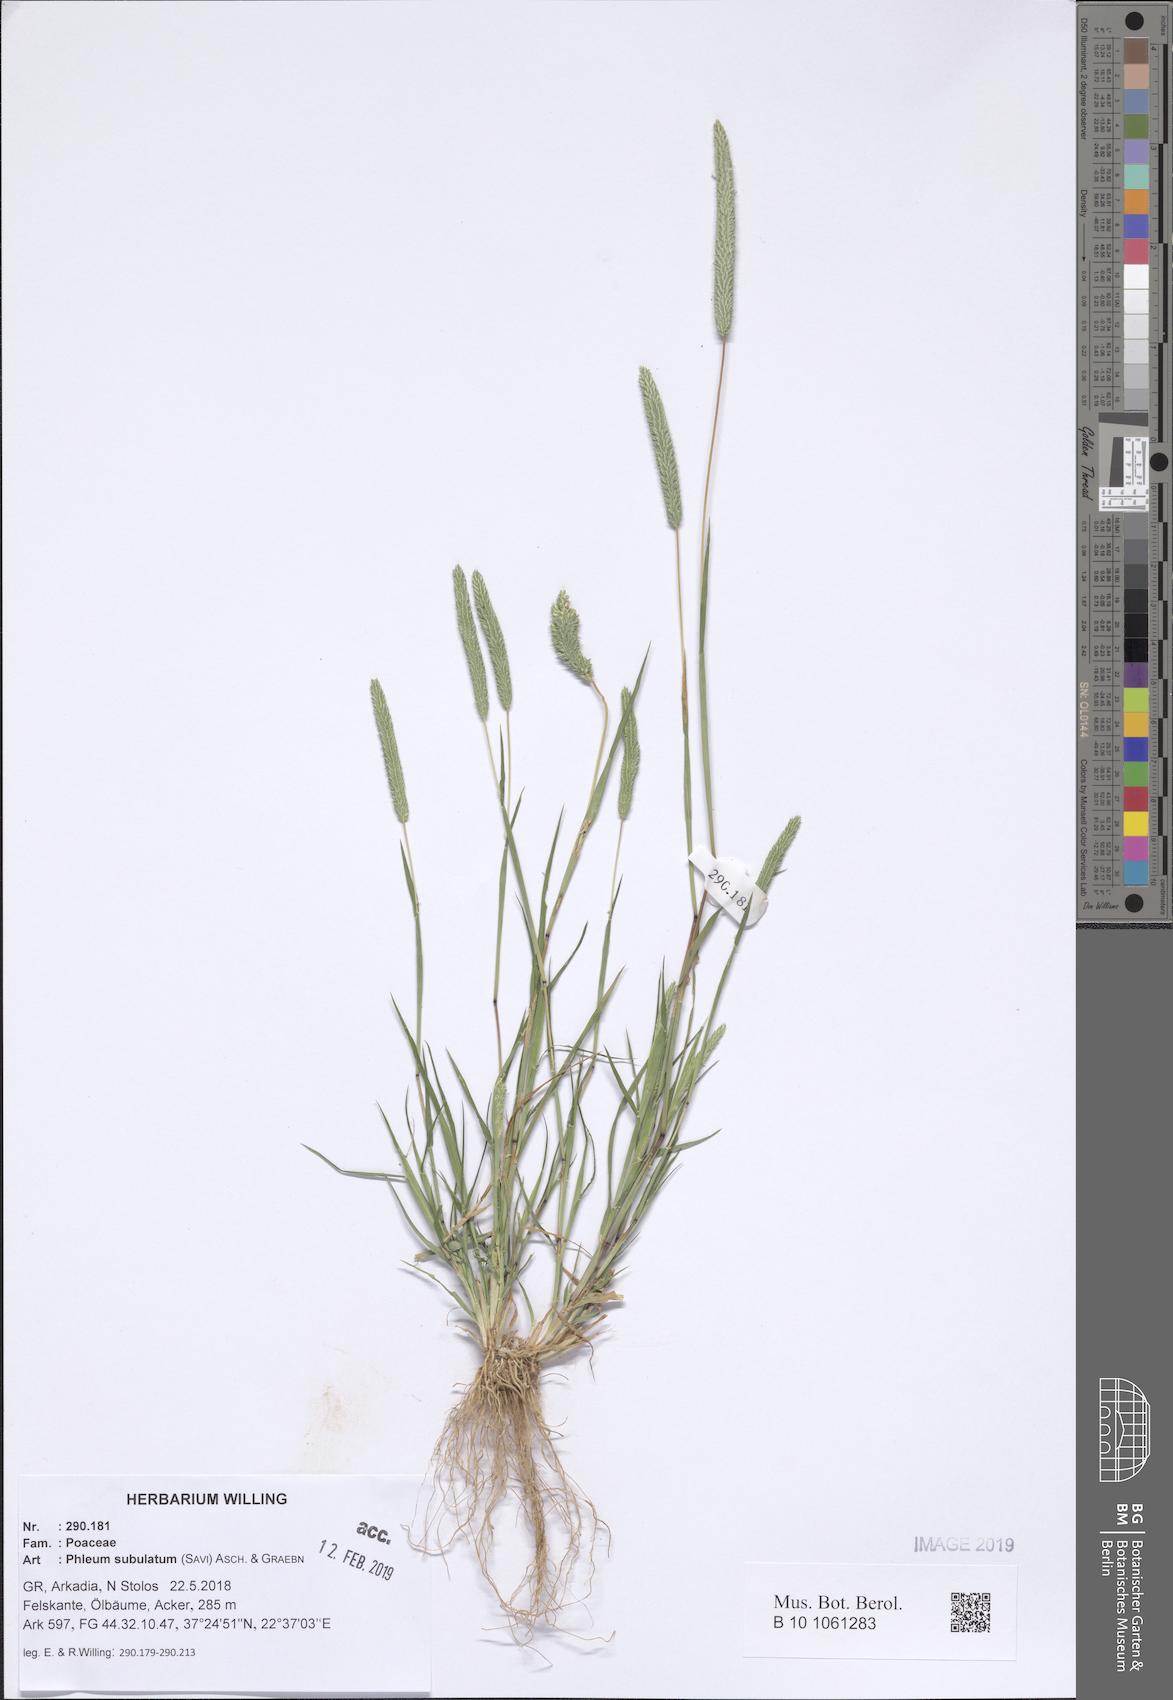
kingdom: Plantae
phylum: Tracheophyta
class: Liliopsida
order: Poales
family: Poaceae
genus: Phleum
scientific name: Phleum subulatum
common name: Italian timothy
